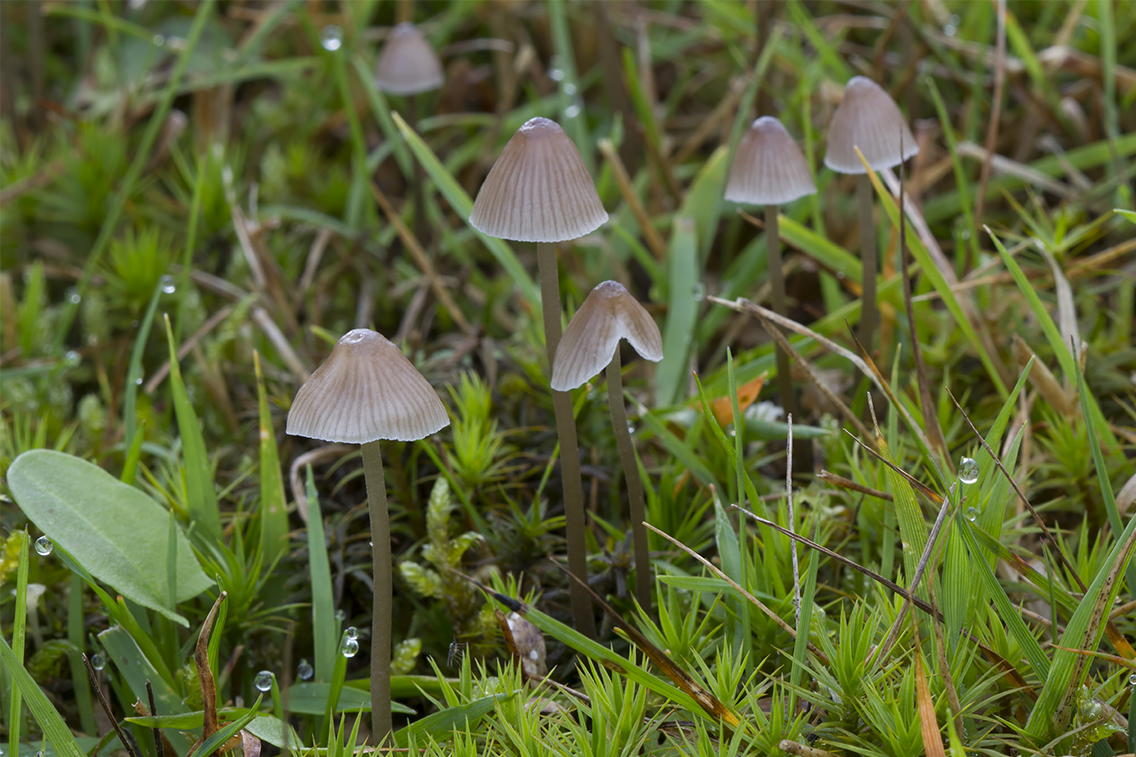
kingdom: Fungi
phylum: Basidiomycota
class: Agaricomycetes
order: Agaricales
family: Mycenaceae
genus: Mycena
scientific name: Mycena leptocephala
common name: klor-huesvamp
